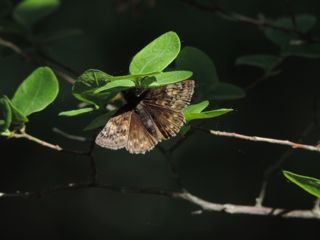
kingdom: Animalia
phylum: Arthropoda
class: Insecta
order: Lepidoptera
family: Hesperiidae
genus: Gesta
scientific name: Gesta
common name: Juvenal's Duskywing
